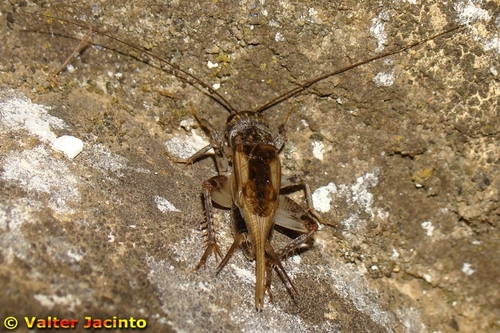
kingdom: Animalia
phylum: Arthropoda
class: Insecta
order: Orthoptera
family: Gryllidae
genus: Eumodicogryllus
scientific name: Eumodicogryllus bordigalensis
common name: Bordeaux cricket
